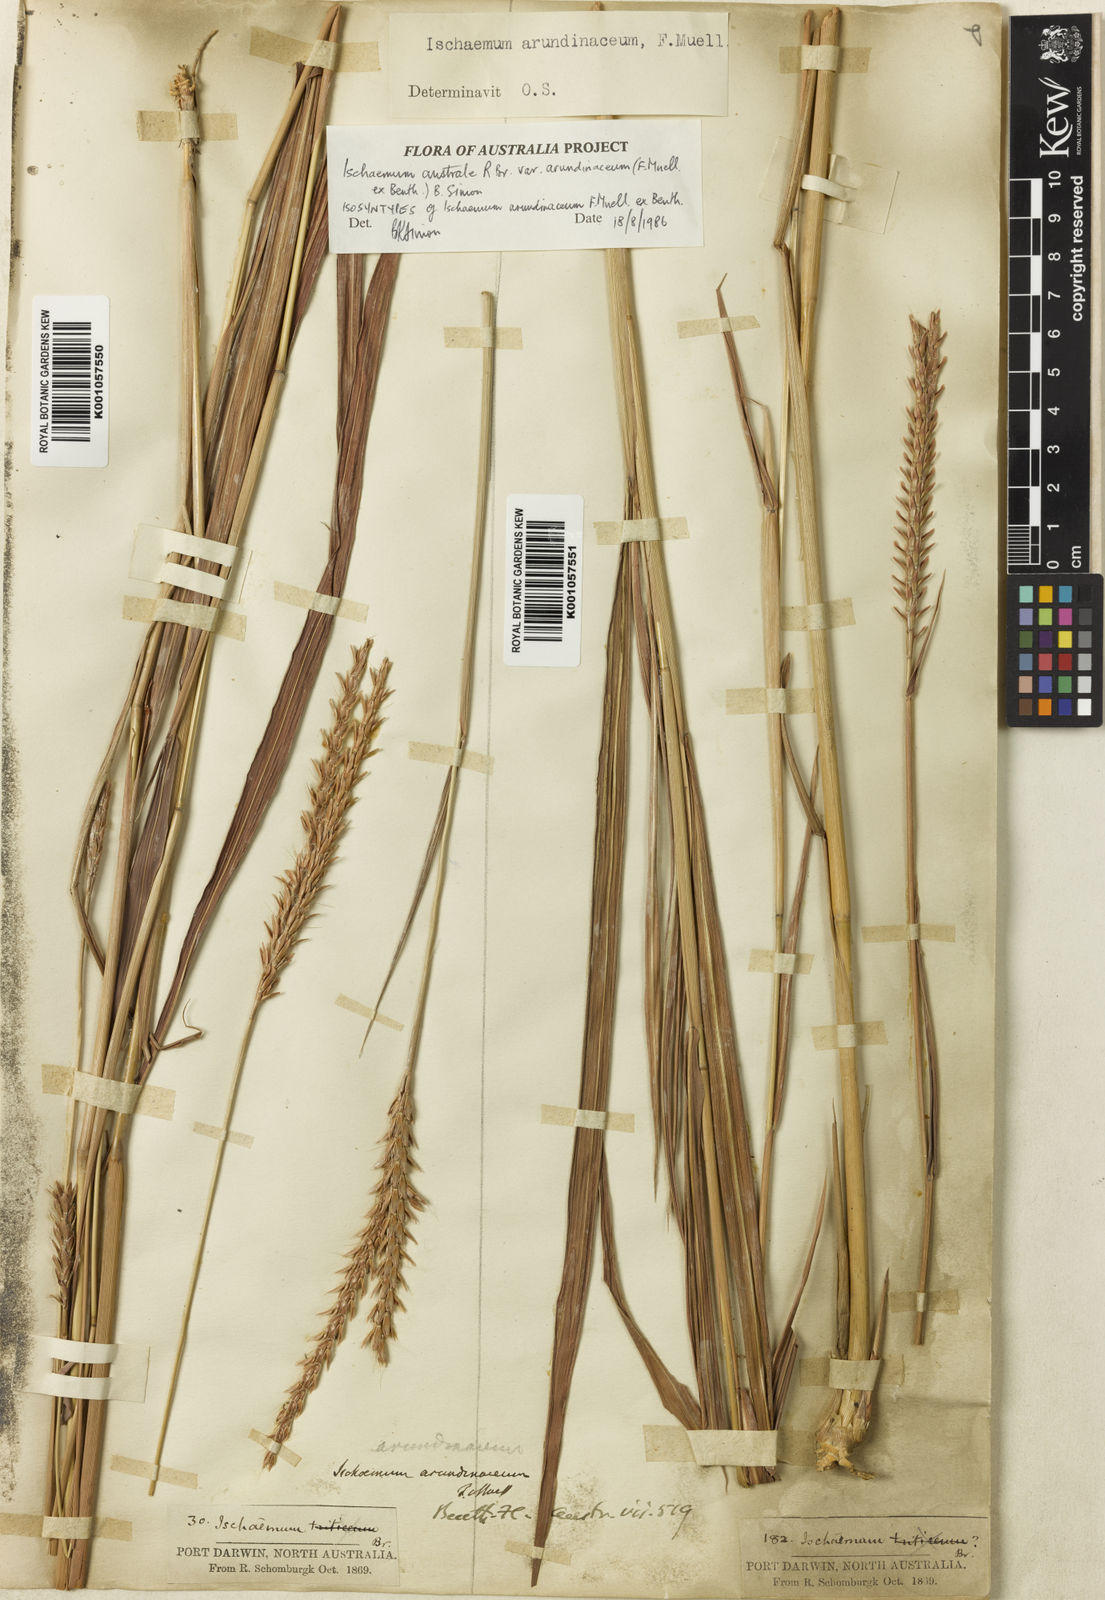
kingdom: Plantae
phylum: Tracheophyta
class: Liliopsida
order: Poales
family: Poaceae
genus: Ischaemum
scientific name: Ischaemum australe
